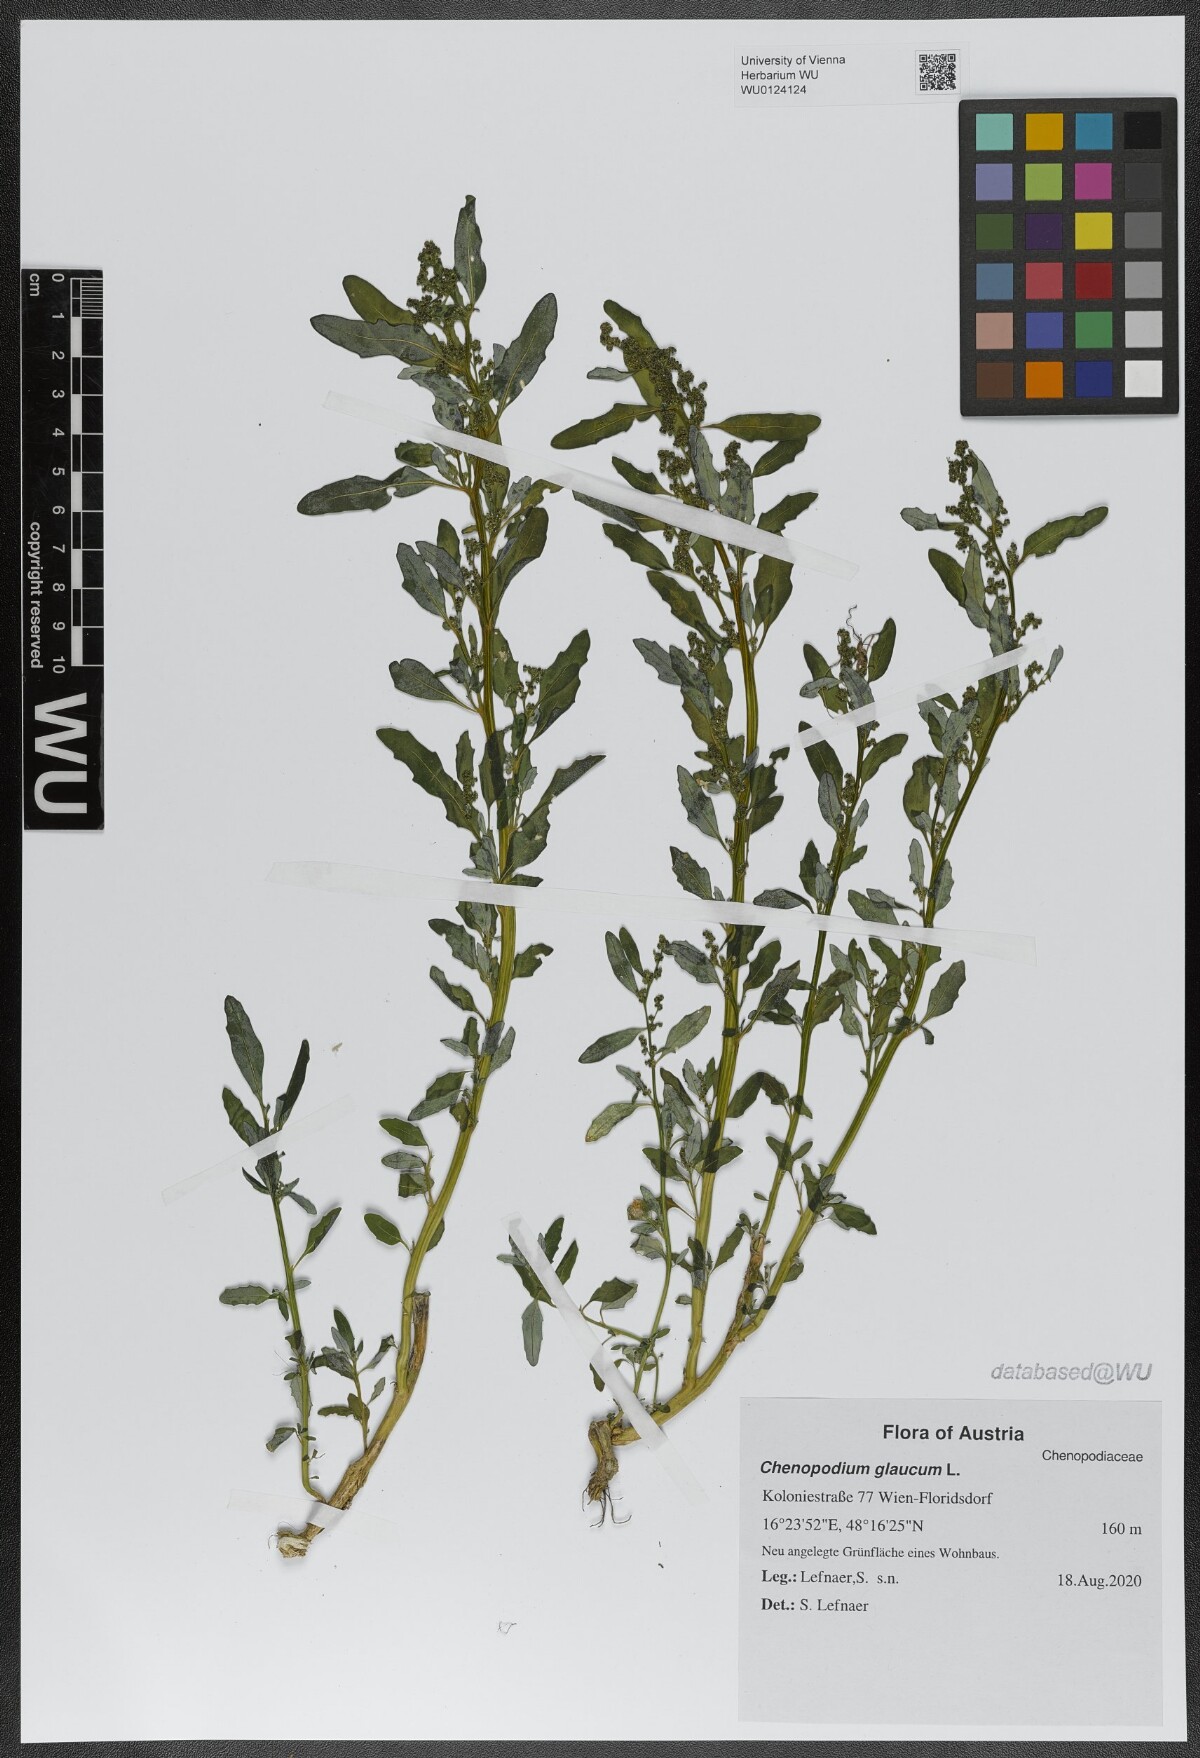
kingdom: Plantae
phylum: Tracheophyta
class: Magnoliopsida
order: Caryophyllales
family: Amaranthaceae
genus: Oxybasis
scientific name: Oxybasis glauca
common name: Glaucous goosefoot
